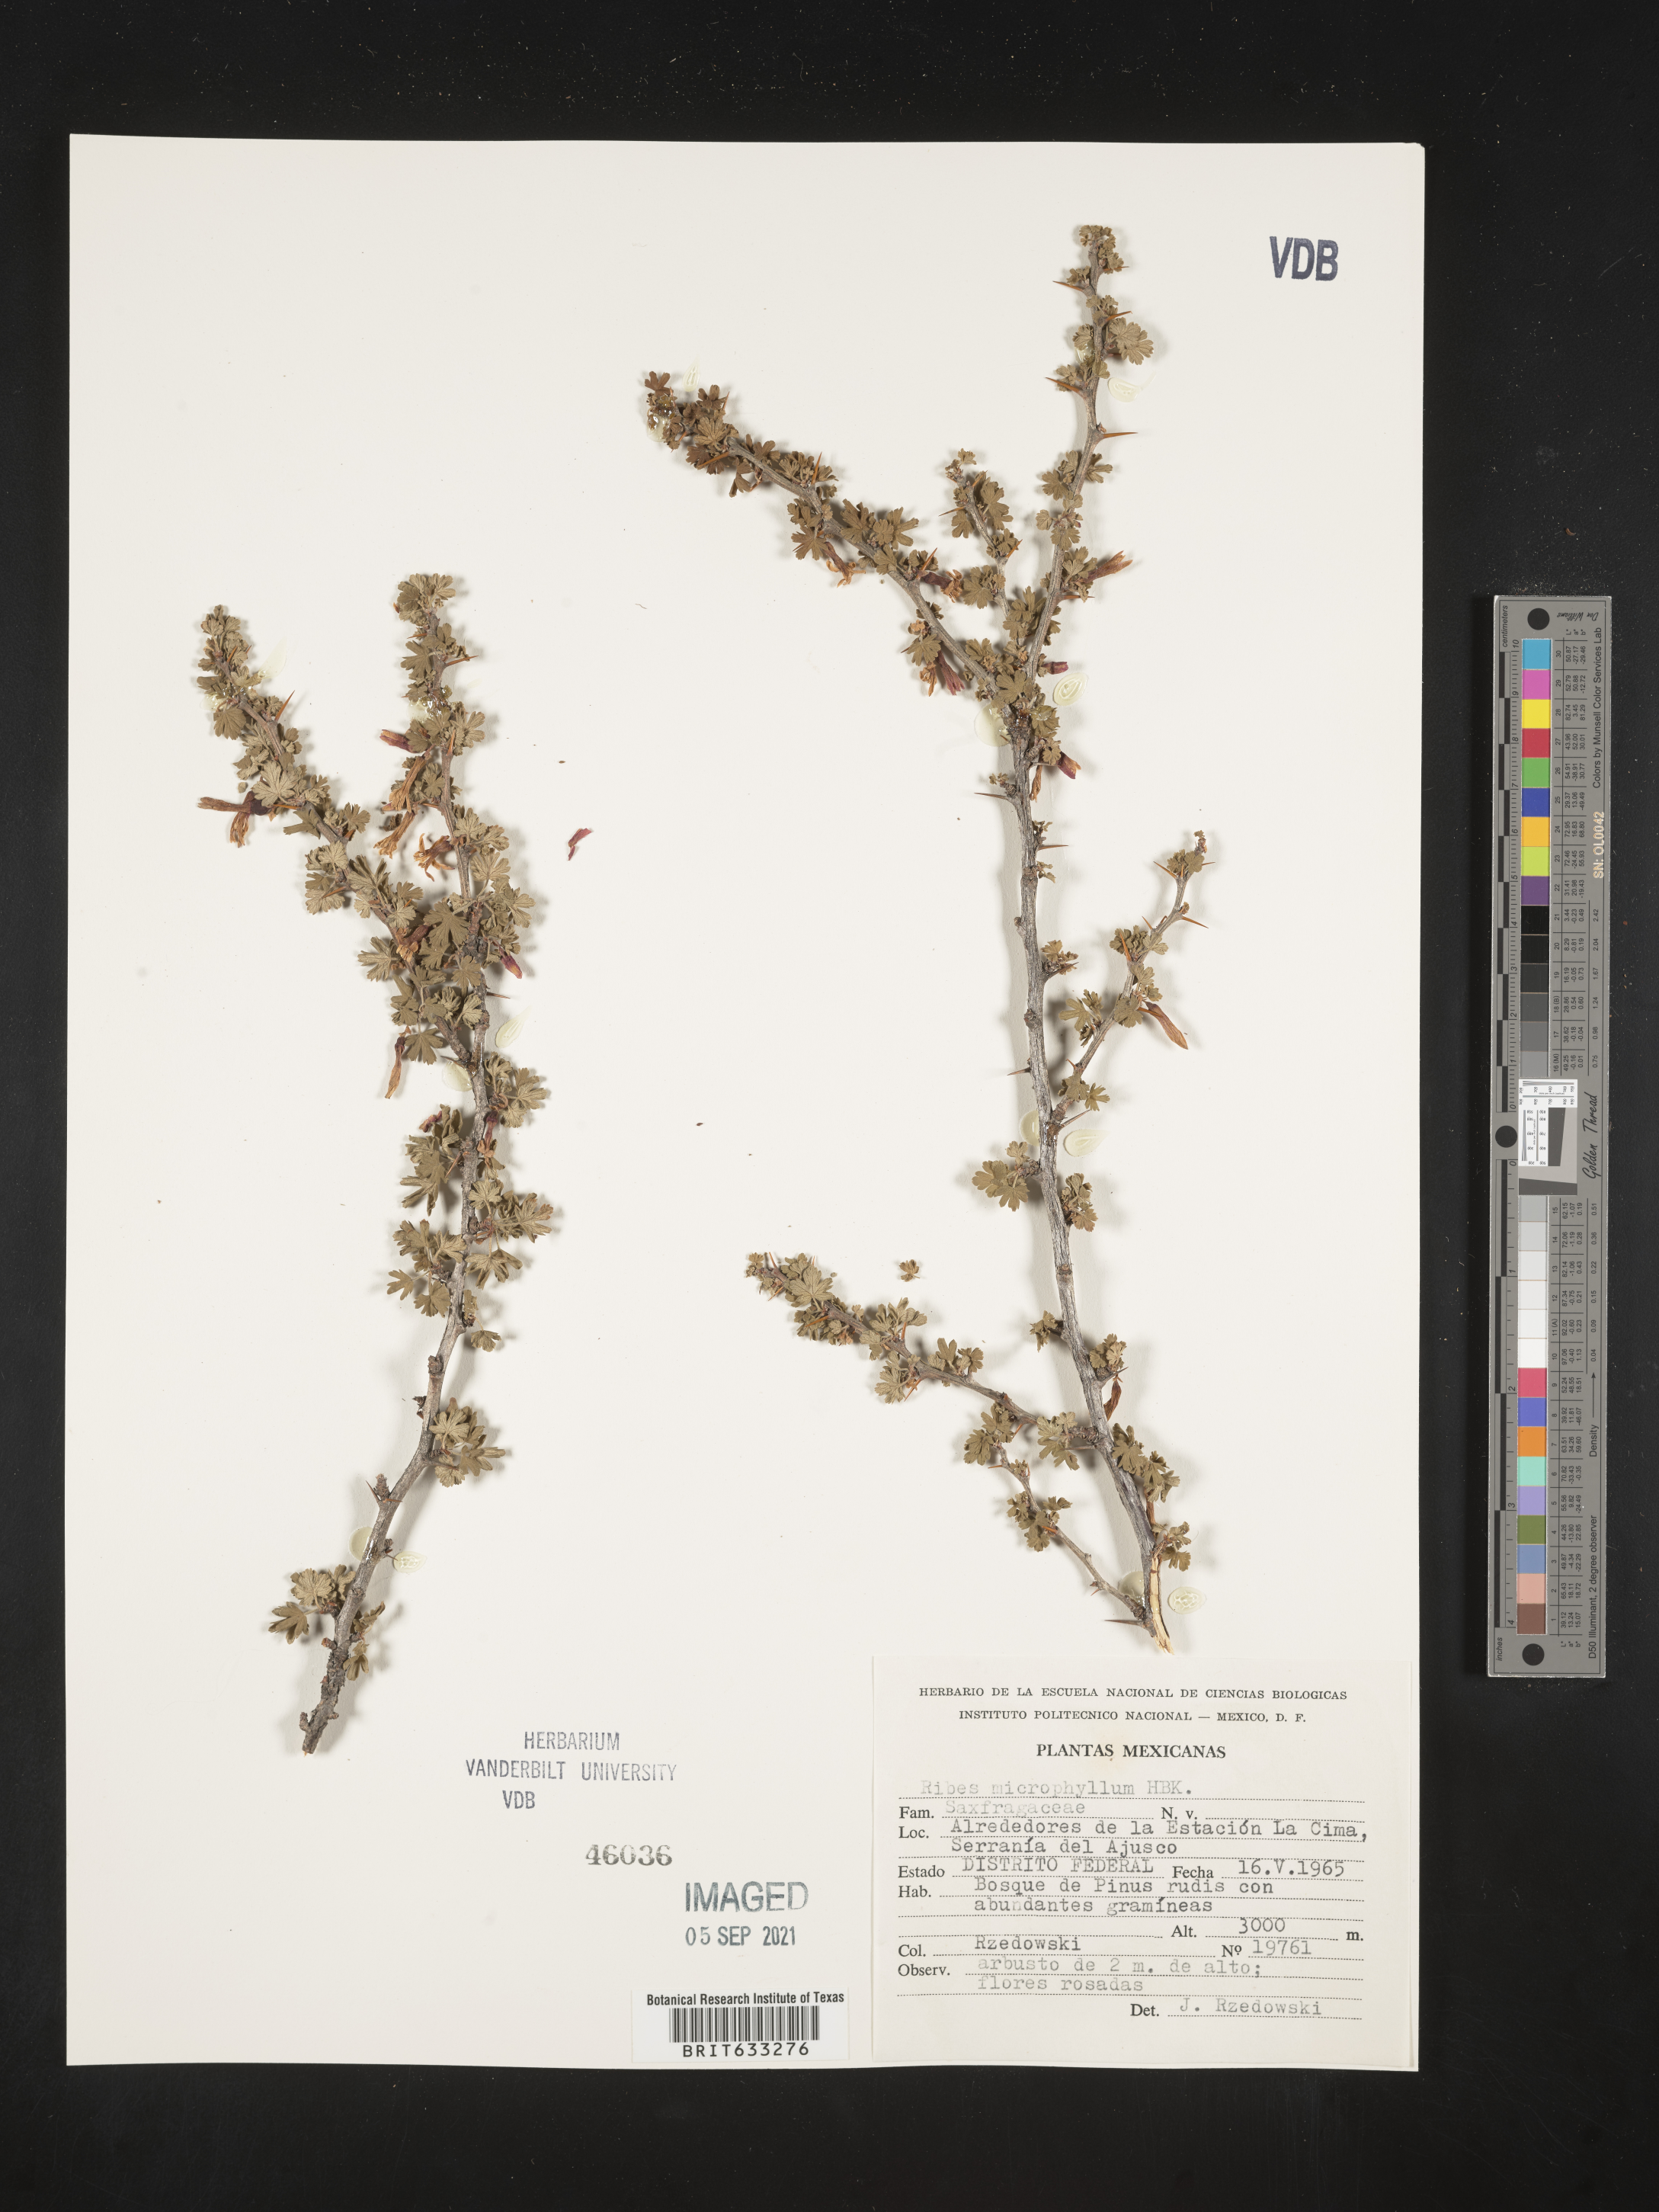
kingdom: Plantae
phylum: Tracheophyta
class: Magnoliopsida
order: Saxifragales
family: Grossulariaceae
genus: Ribes
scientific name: Ribes
